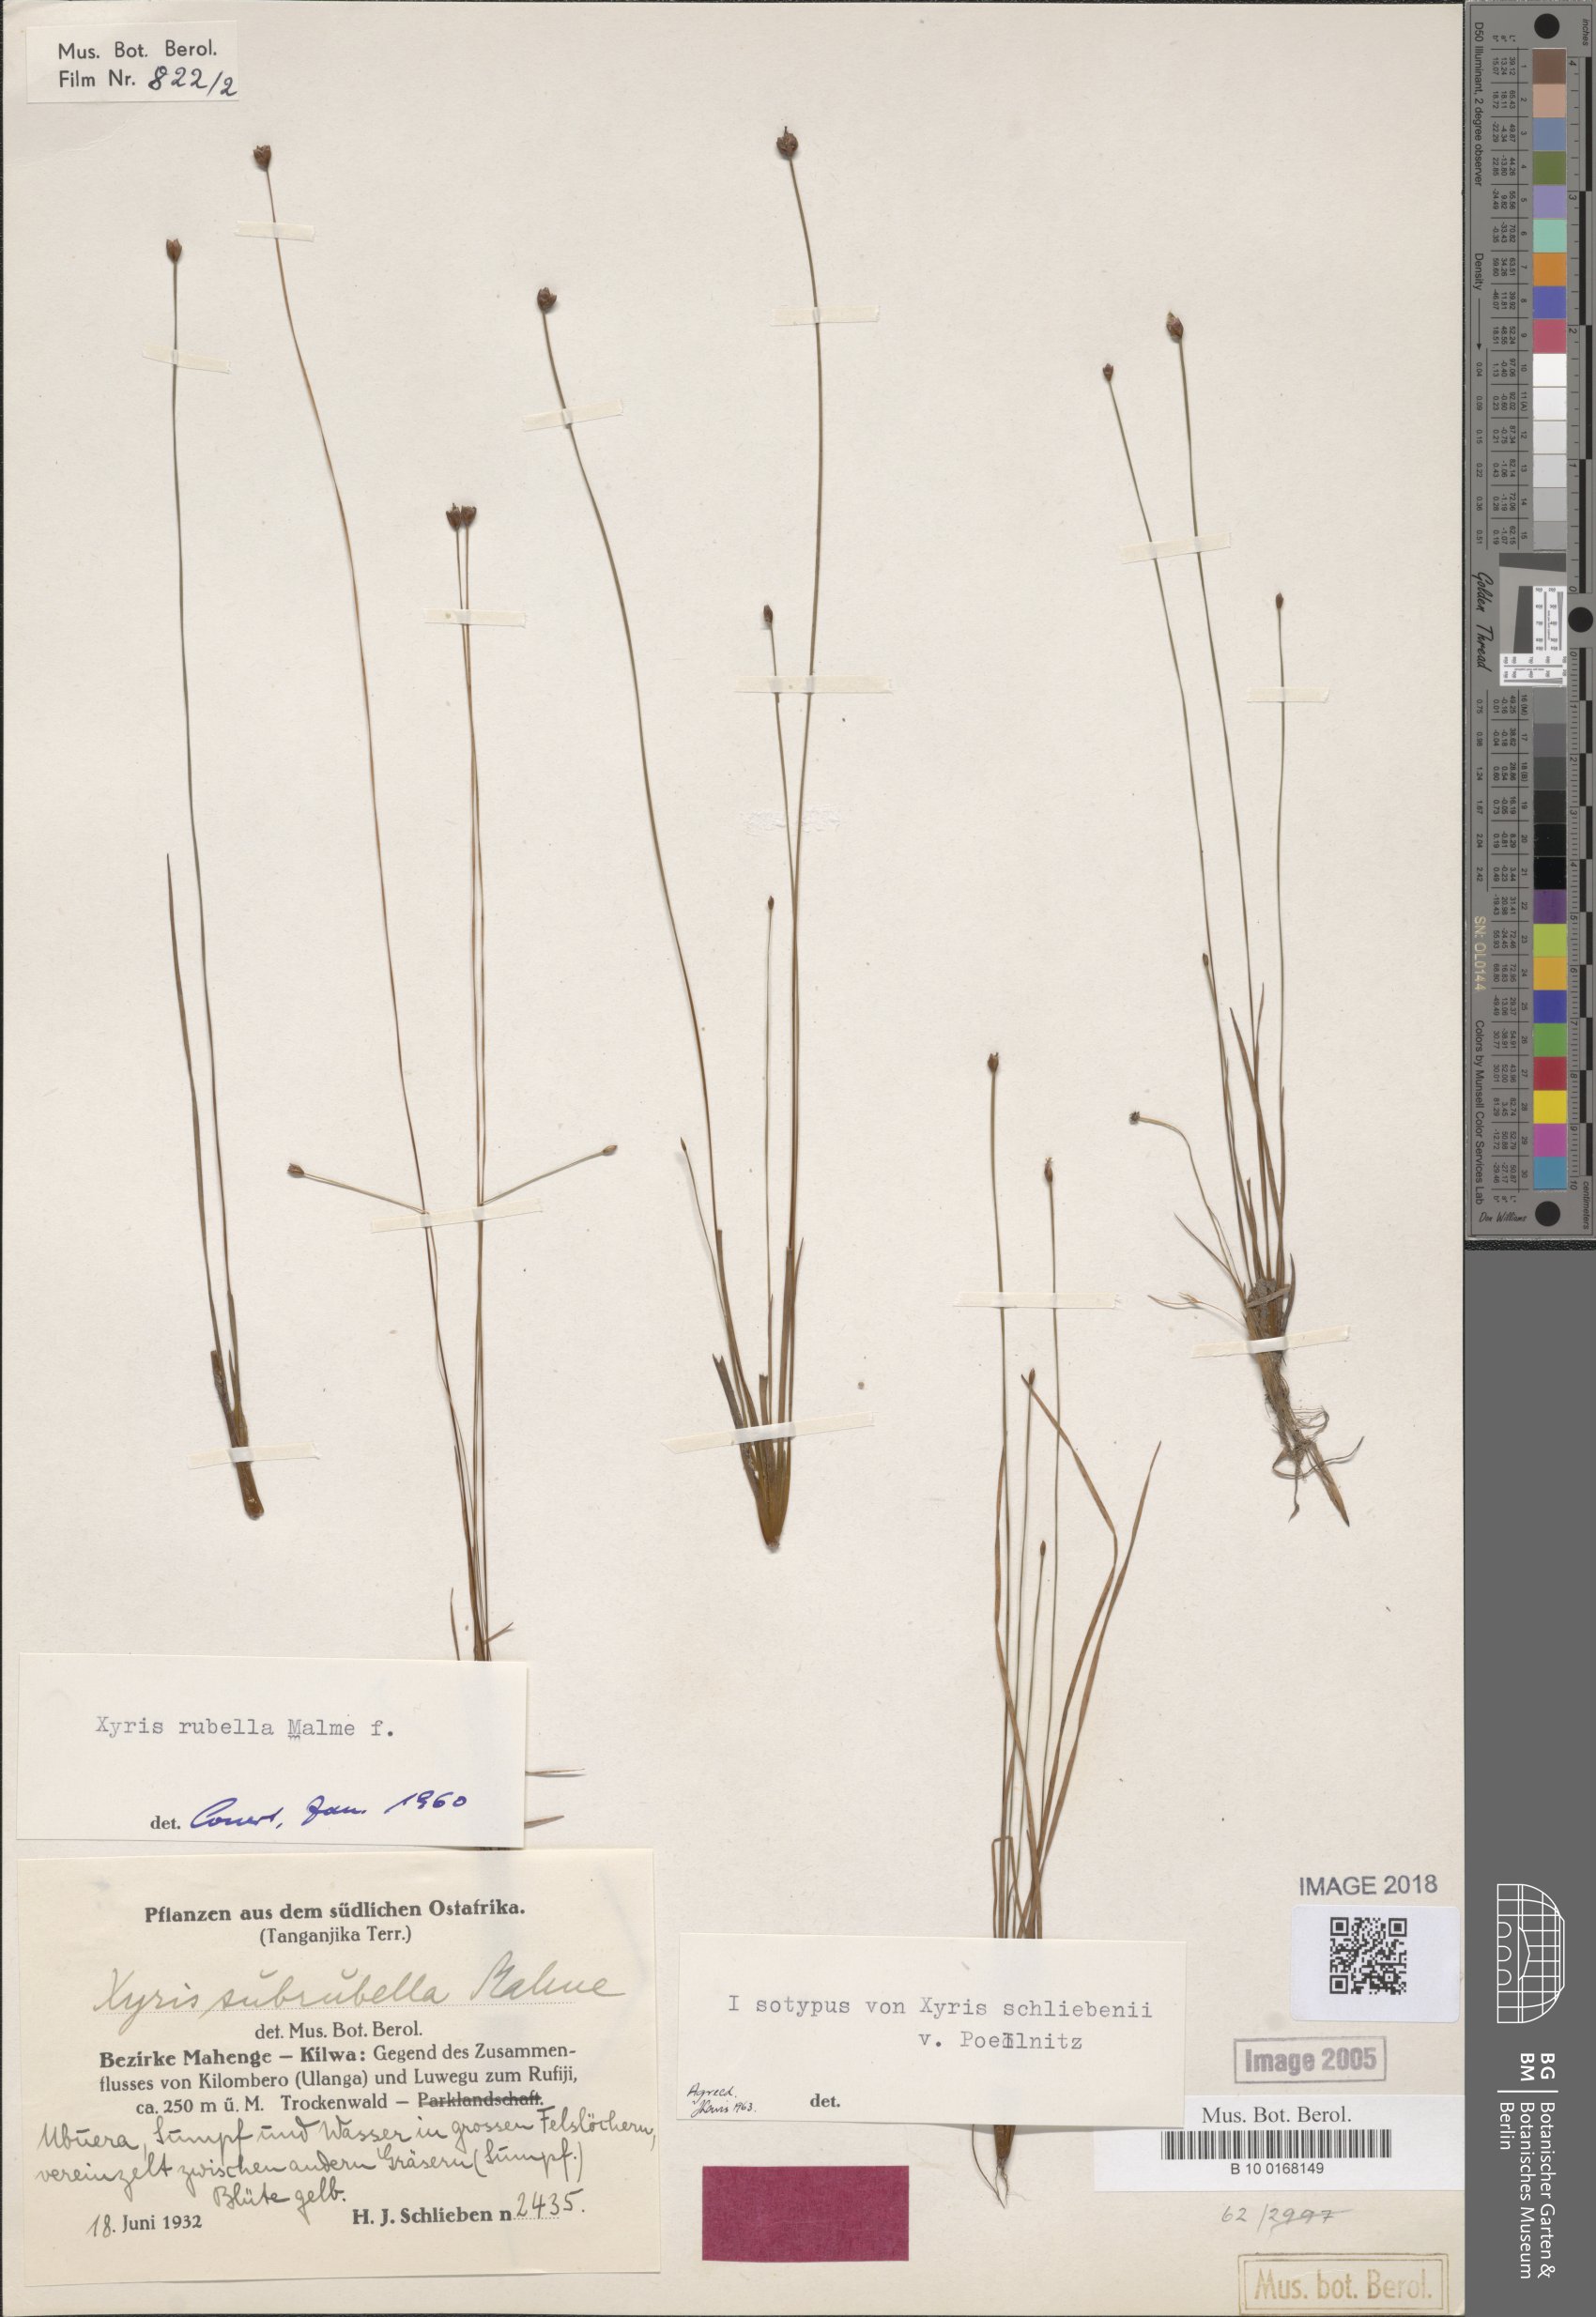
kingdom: Plantae
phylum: Tracheophyta
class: Liliopsida
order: Poales
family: Xyridaceae
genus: Xyris
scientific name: Xyris schliebenii
